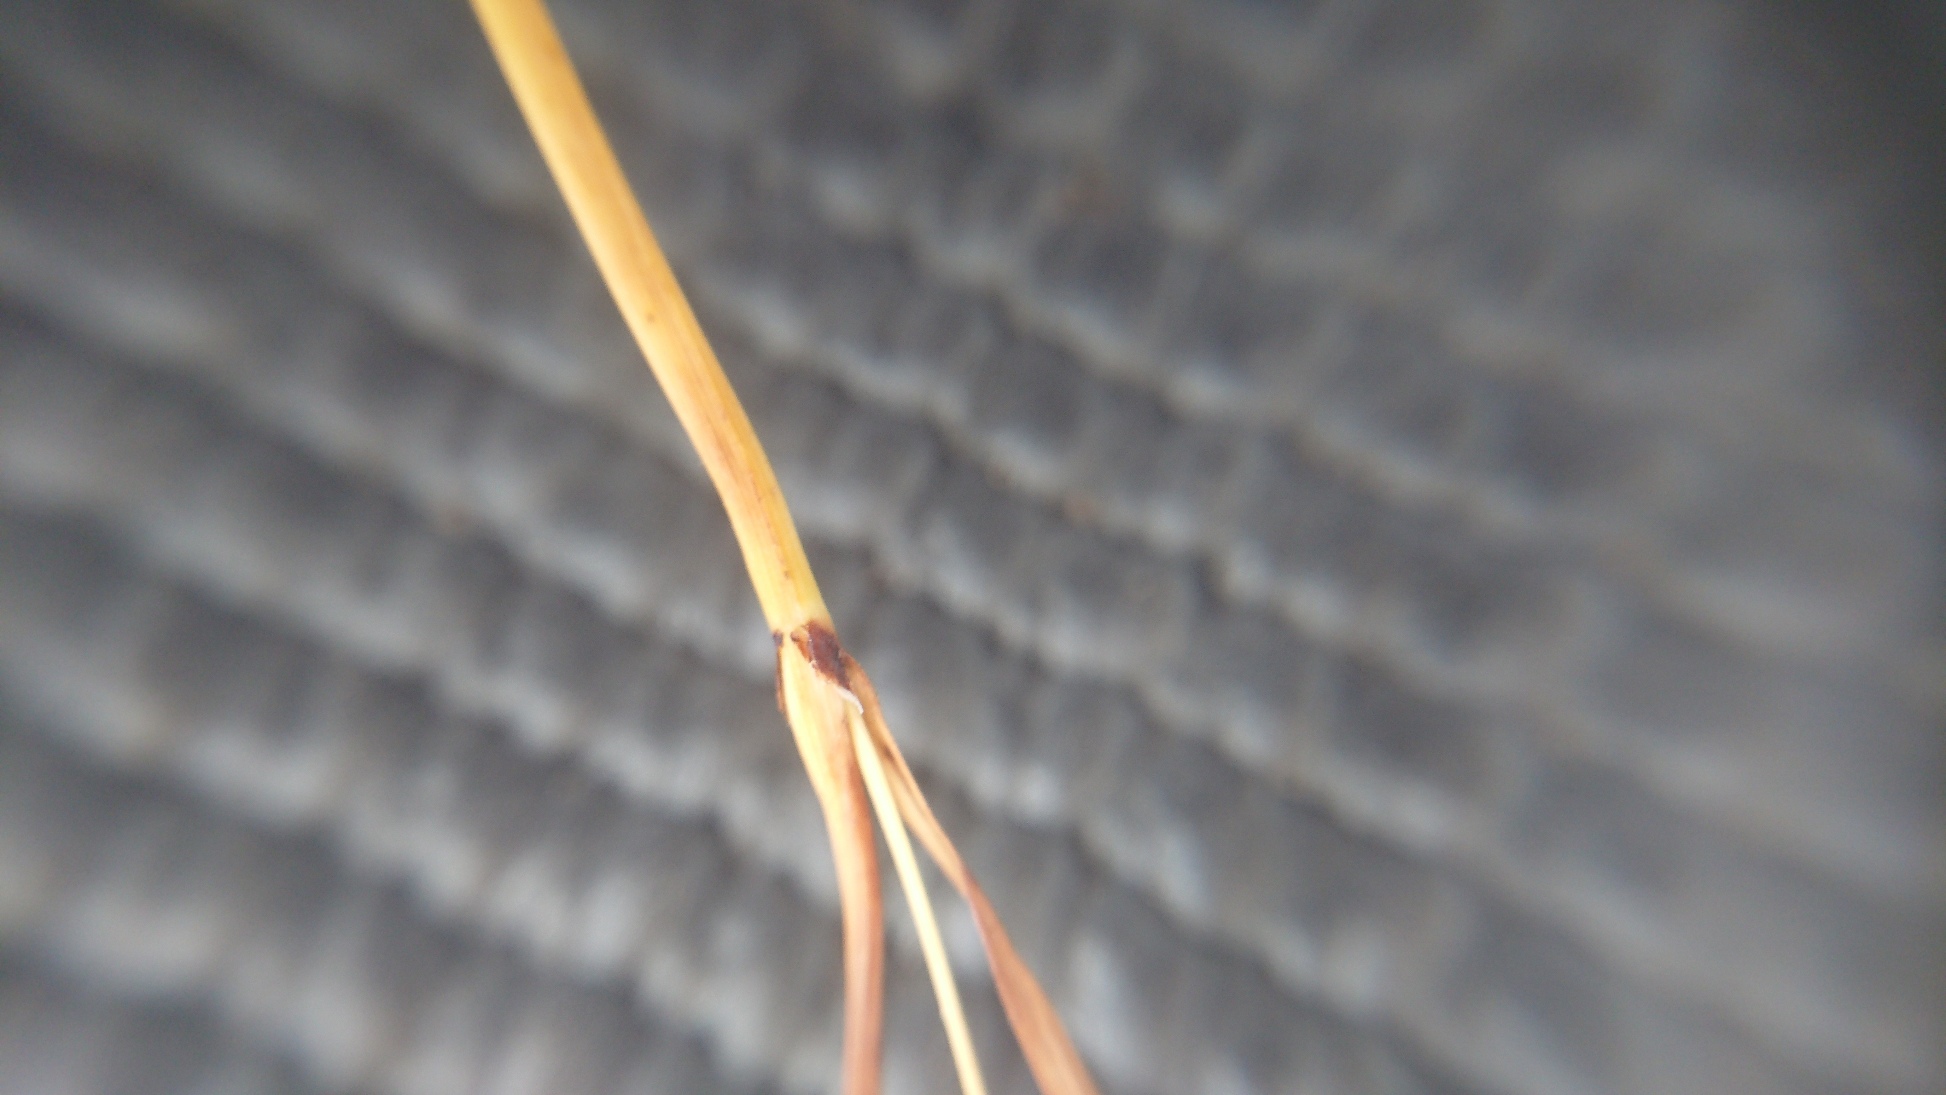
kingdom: Plantae
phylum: Tracheophyta
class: Liliopsida
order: Poales
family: Cyperaceae
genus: Carex
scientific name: Carex flacca
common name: Blågrøn star
